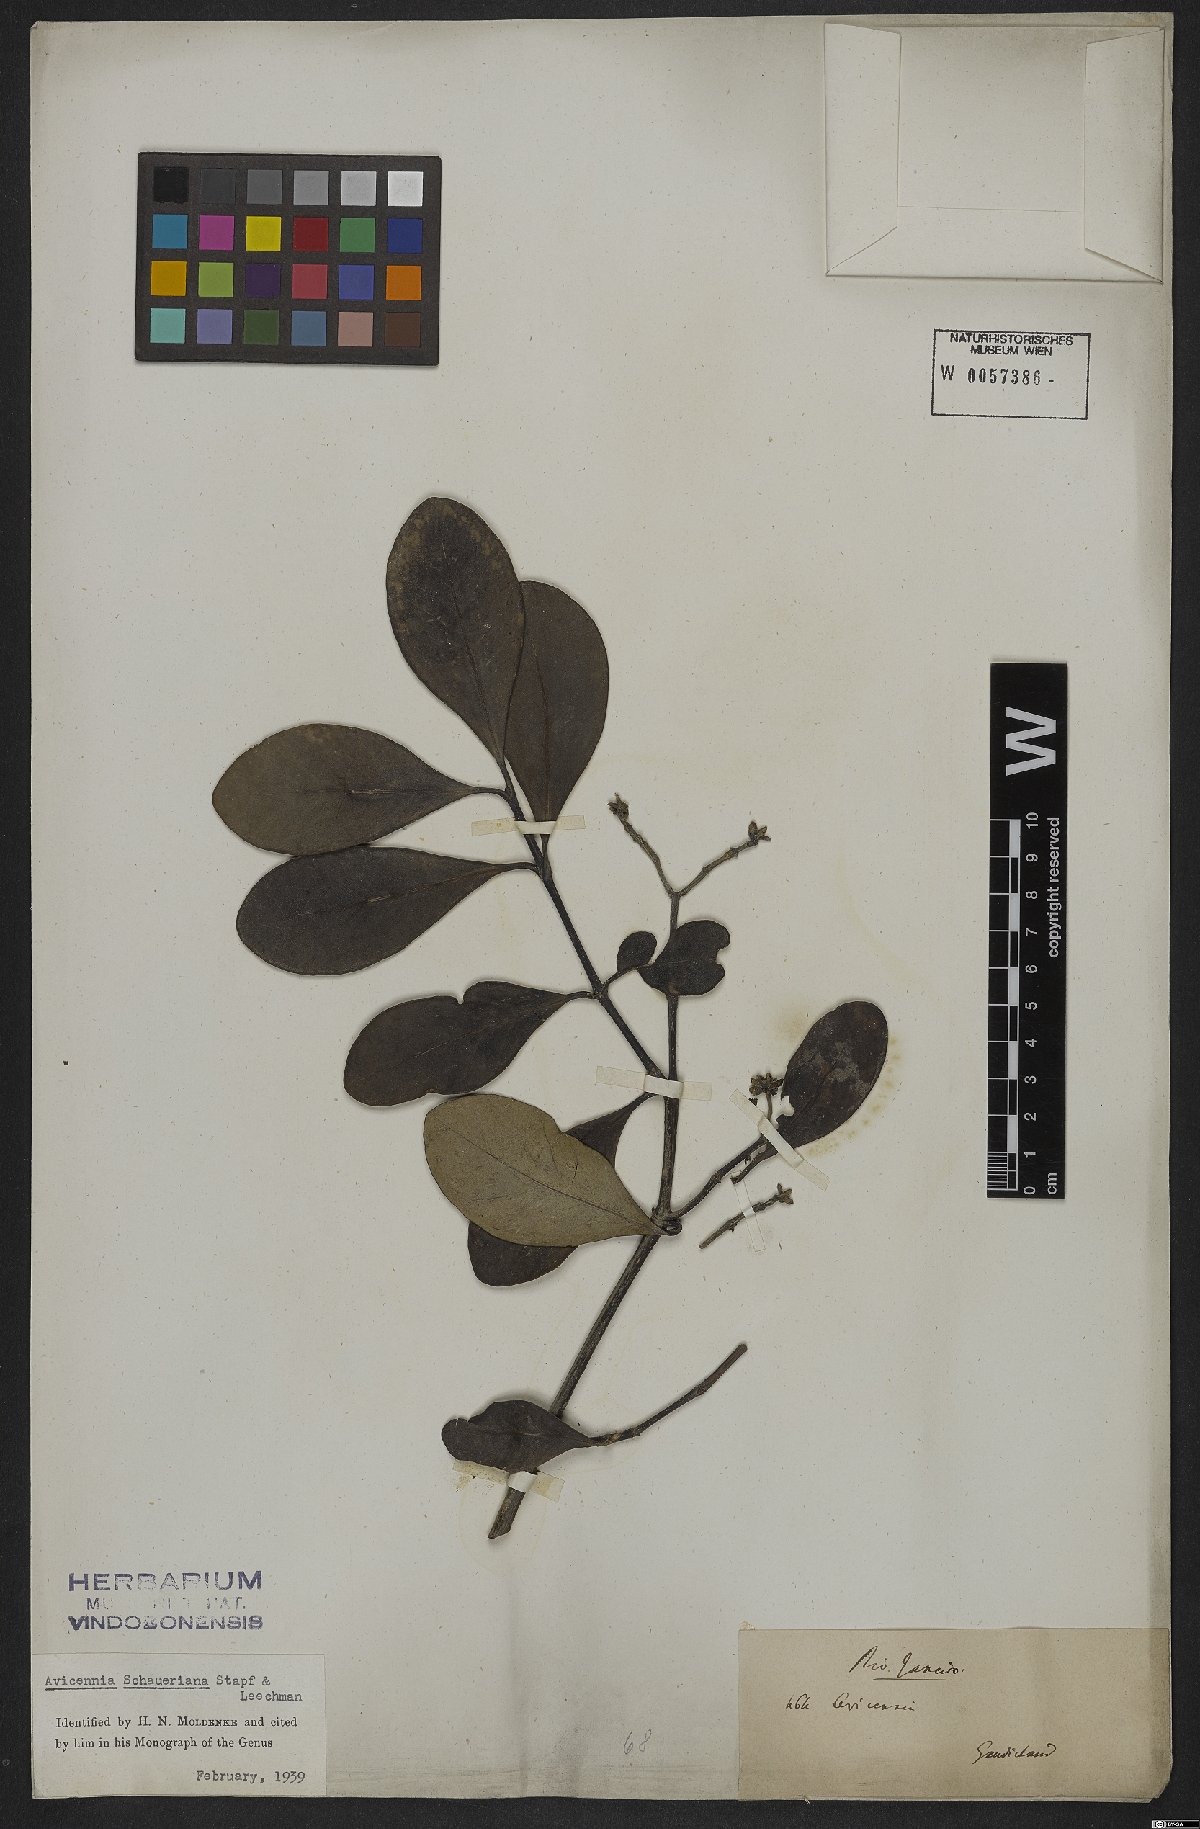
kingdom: Plantae
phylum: Tracheophyta
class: Magnoliopsida
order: Lamiales
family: Acanthaceae
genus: Avicennia
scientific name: Avicennia schaueriana
